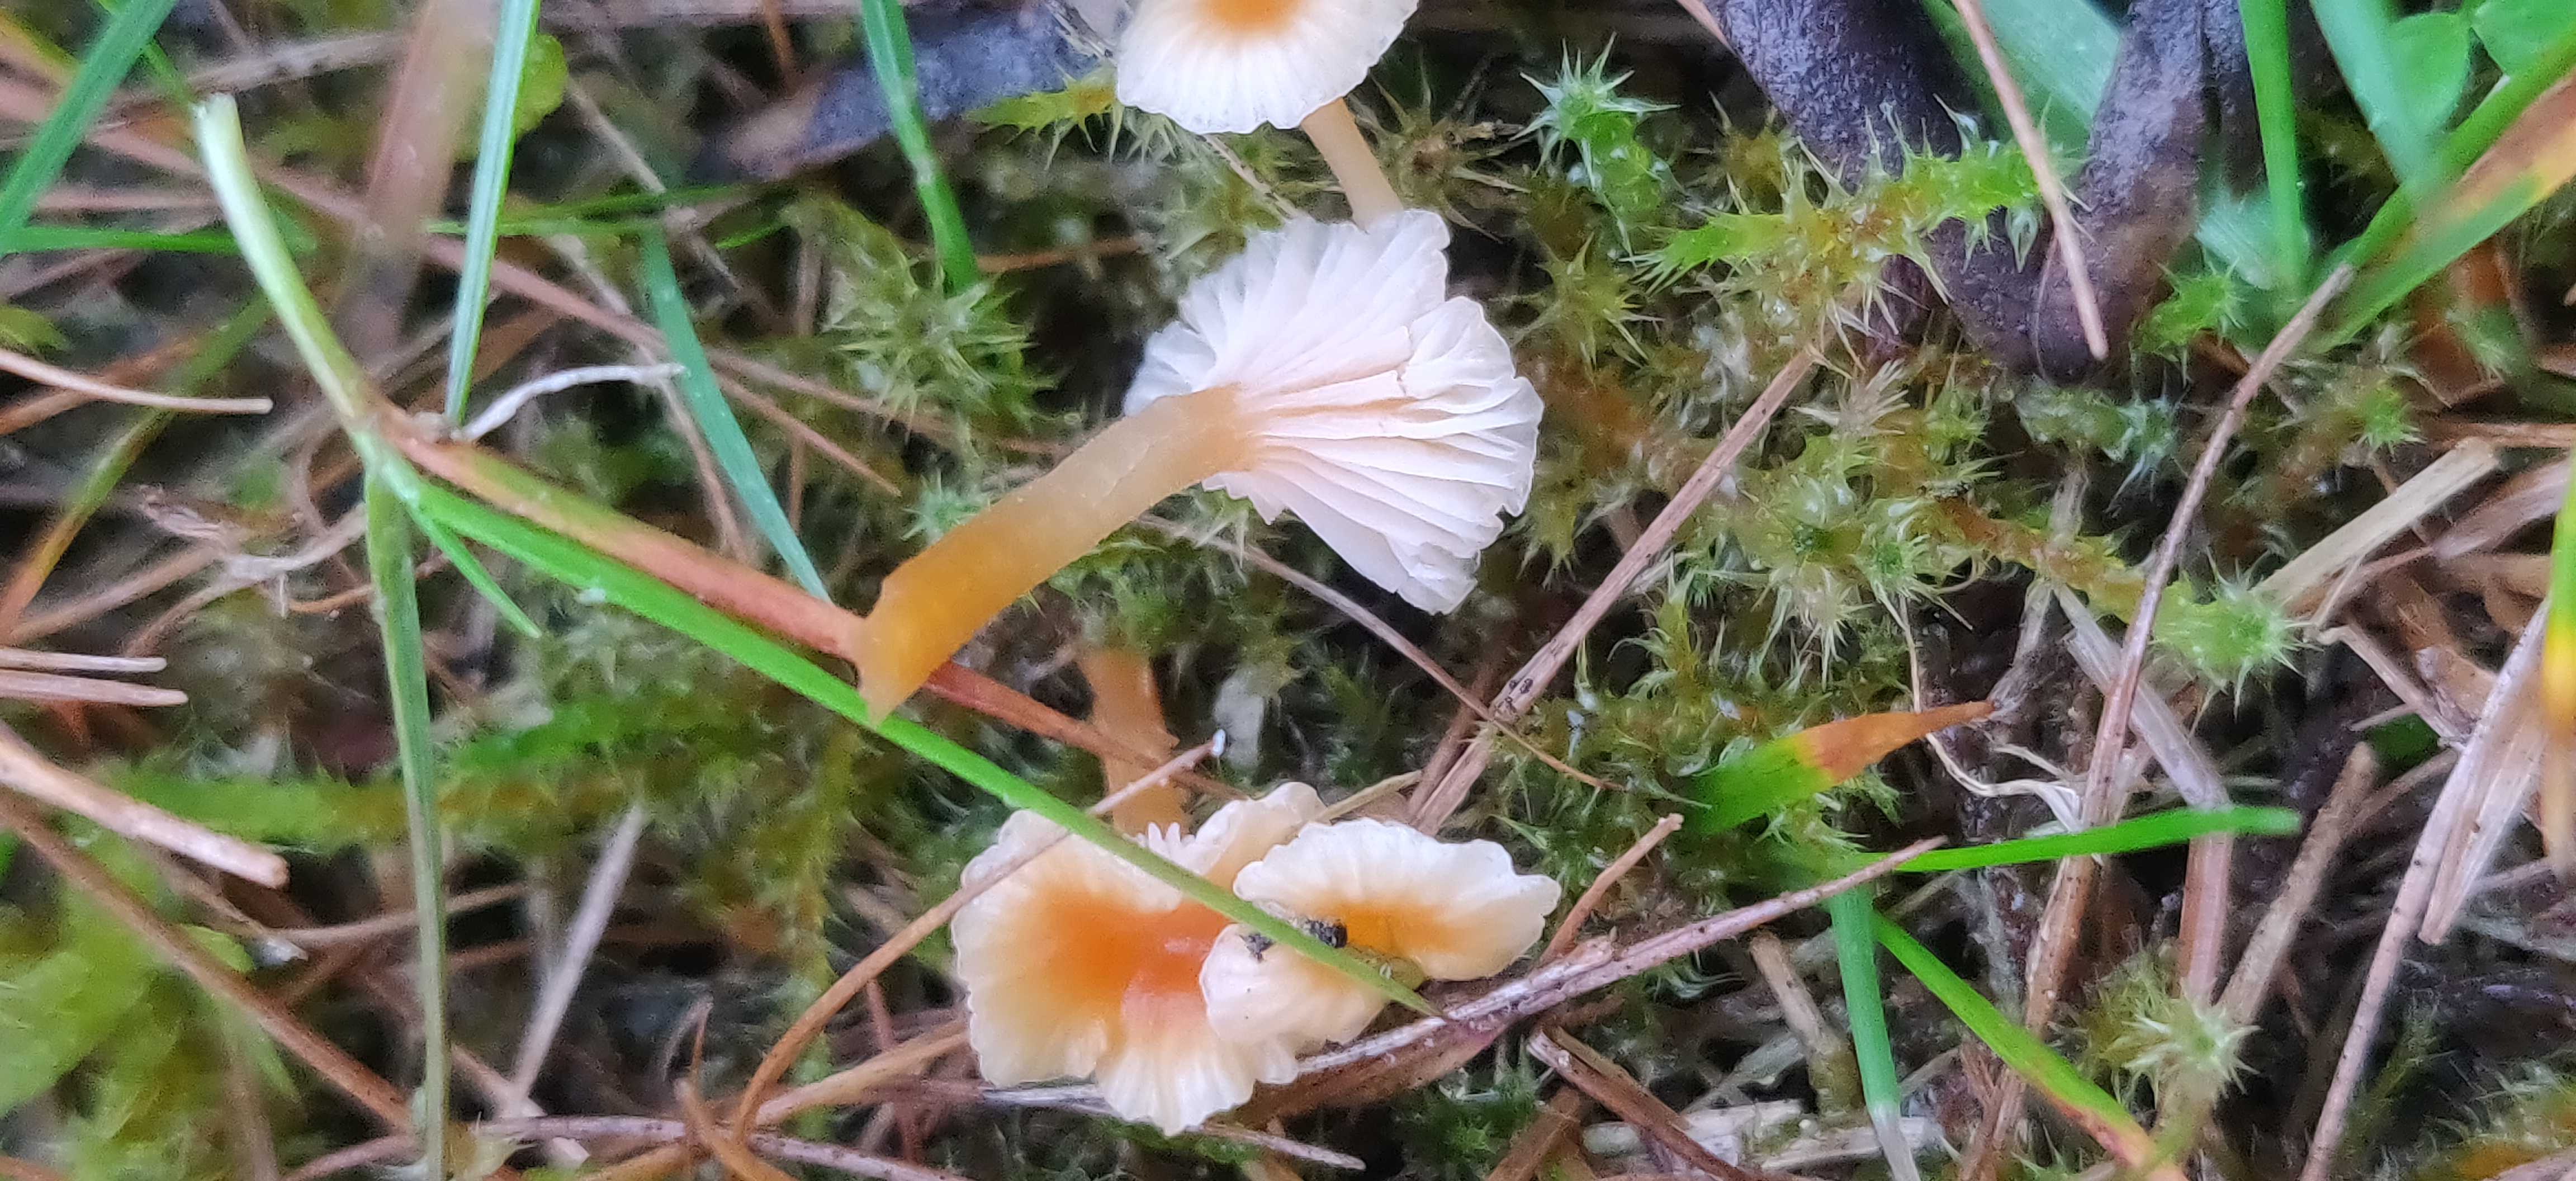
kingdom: Fungi
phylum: Basidiomycota
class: Agaricomycetes
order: Hymenochaetales
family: Rickenellaceae
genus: Rickenella
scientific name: Rickenella fibula
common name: orange mosnavlehat
